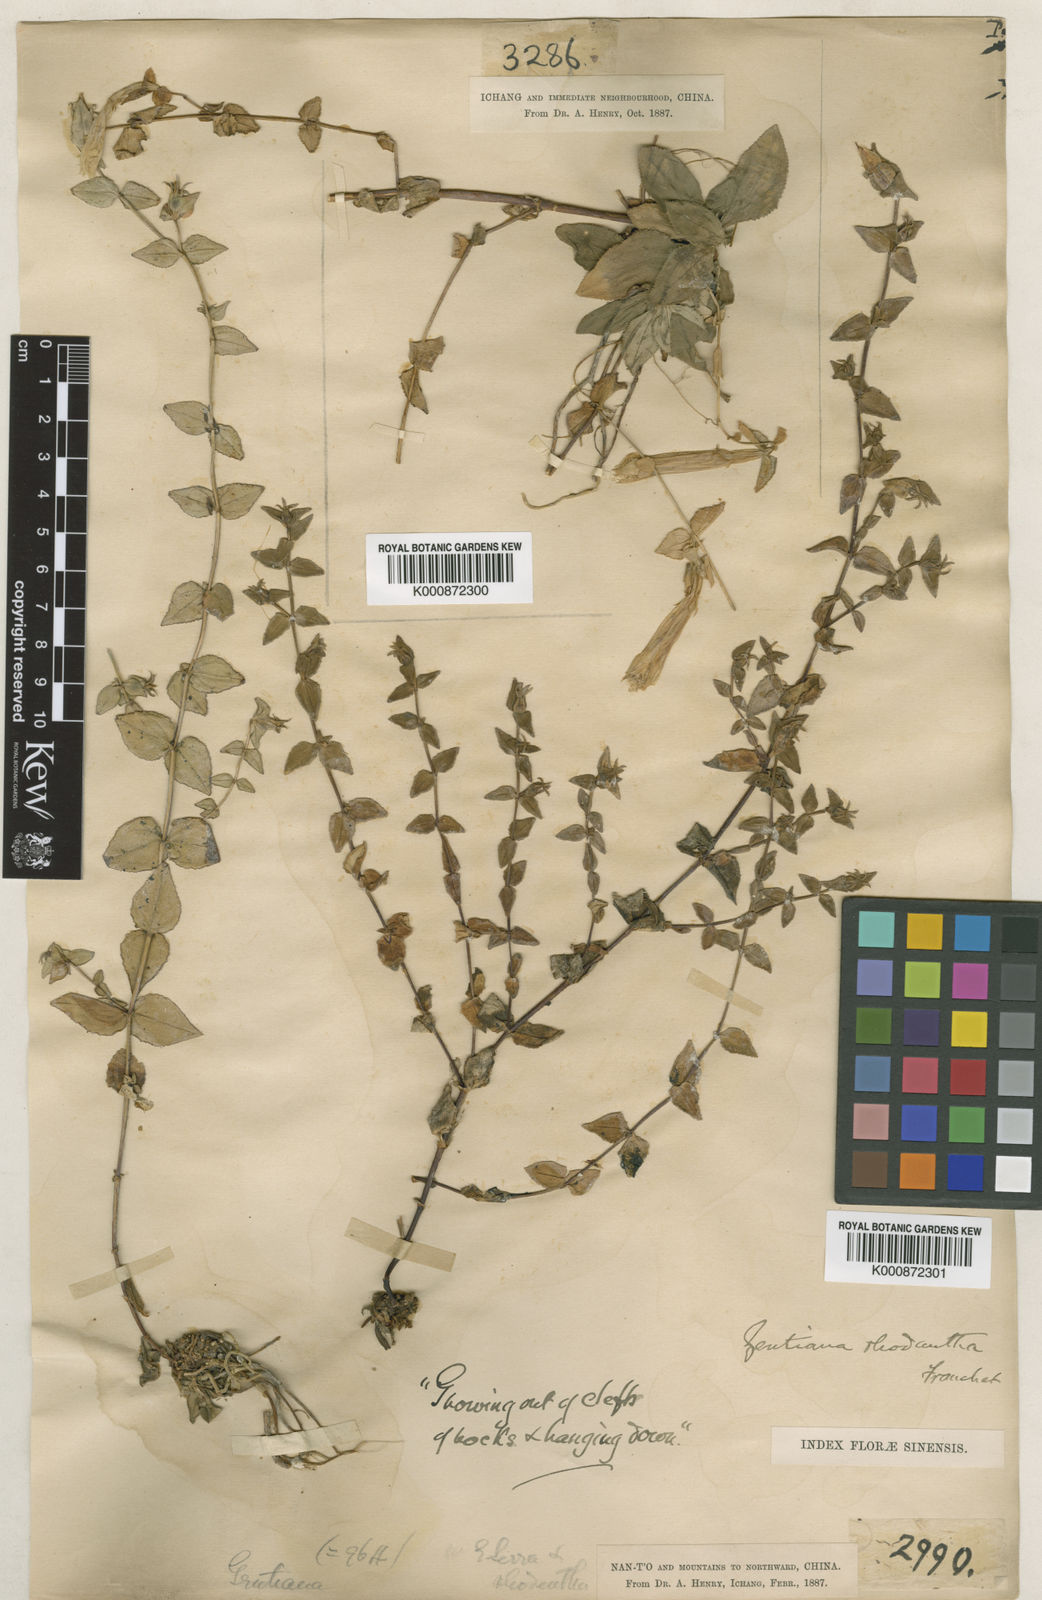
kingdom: Plantae
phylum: Tracheophyta
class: Magnoliopsida
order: Gentianales
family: Gentianaceae
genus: Metagentiana
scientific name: Metagentiana rhodantha
